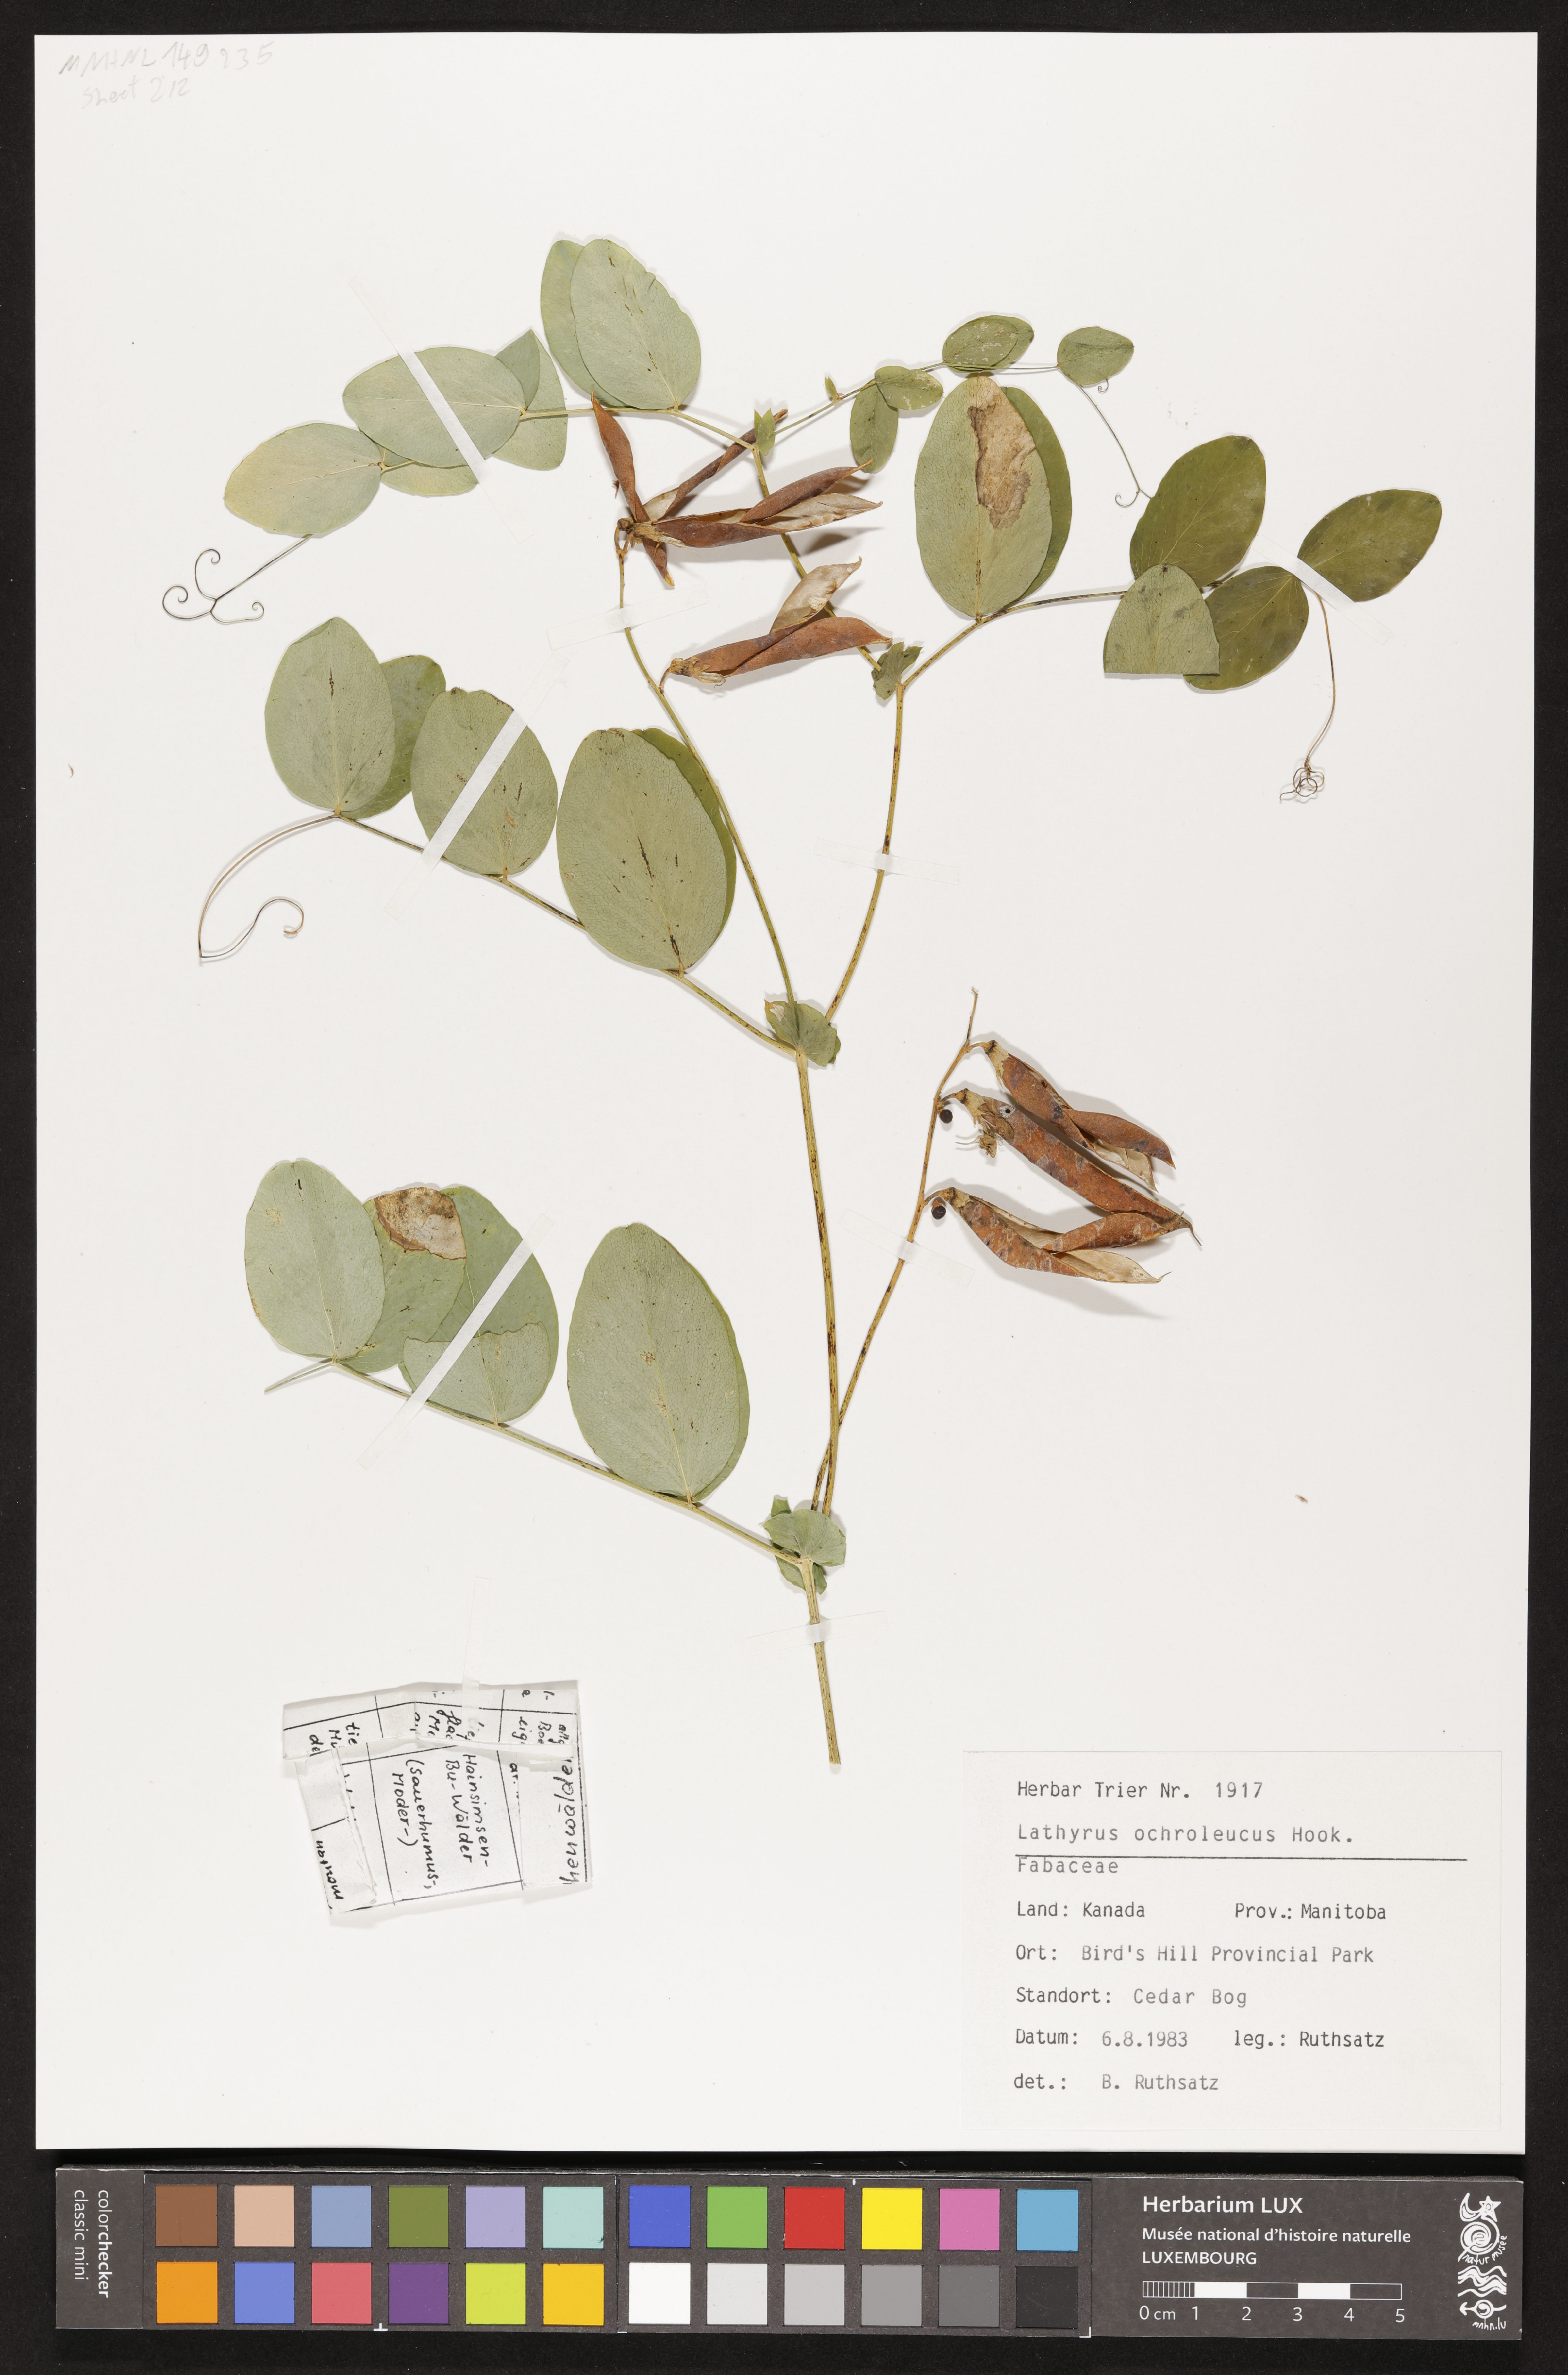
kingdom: Plantae
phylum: Tracheophyta
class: Magnoliopsida
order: Fabales
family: Fabaceae
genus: Lathyrus
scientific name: Lathyrus ochroleucus
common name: Pale vetchling
